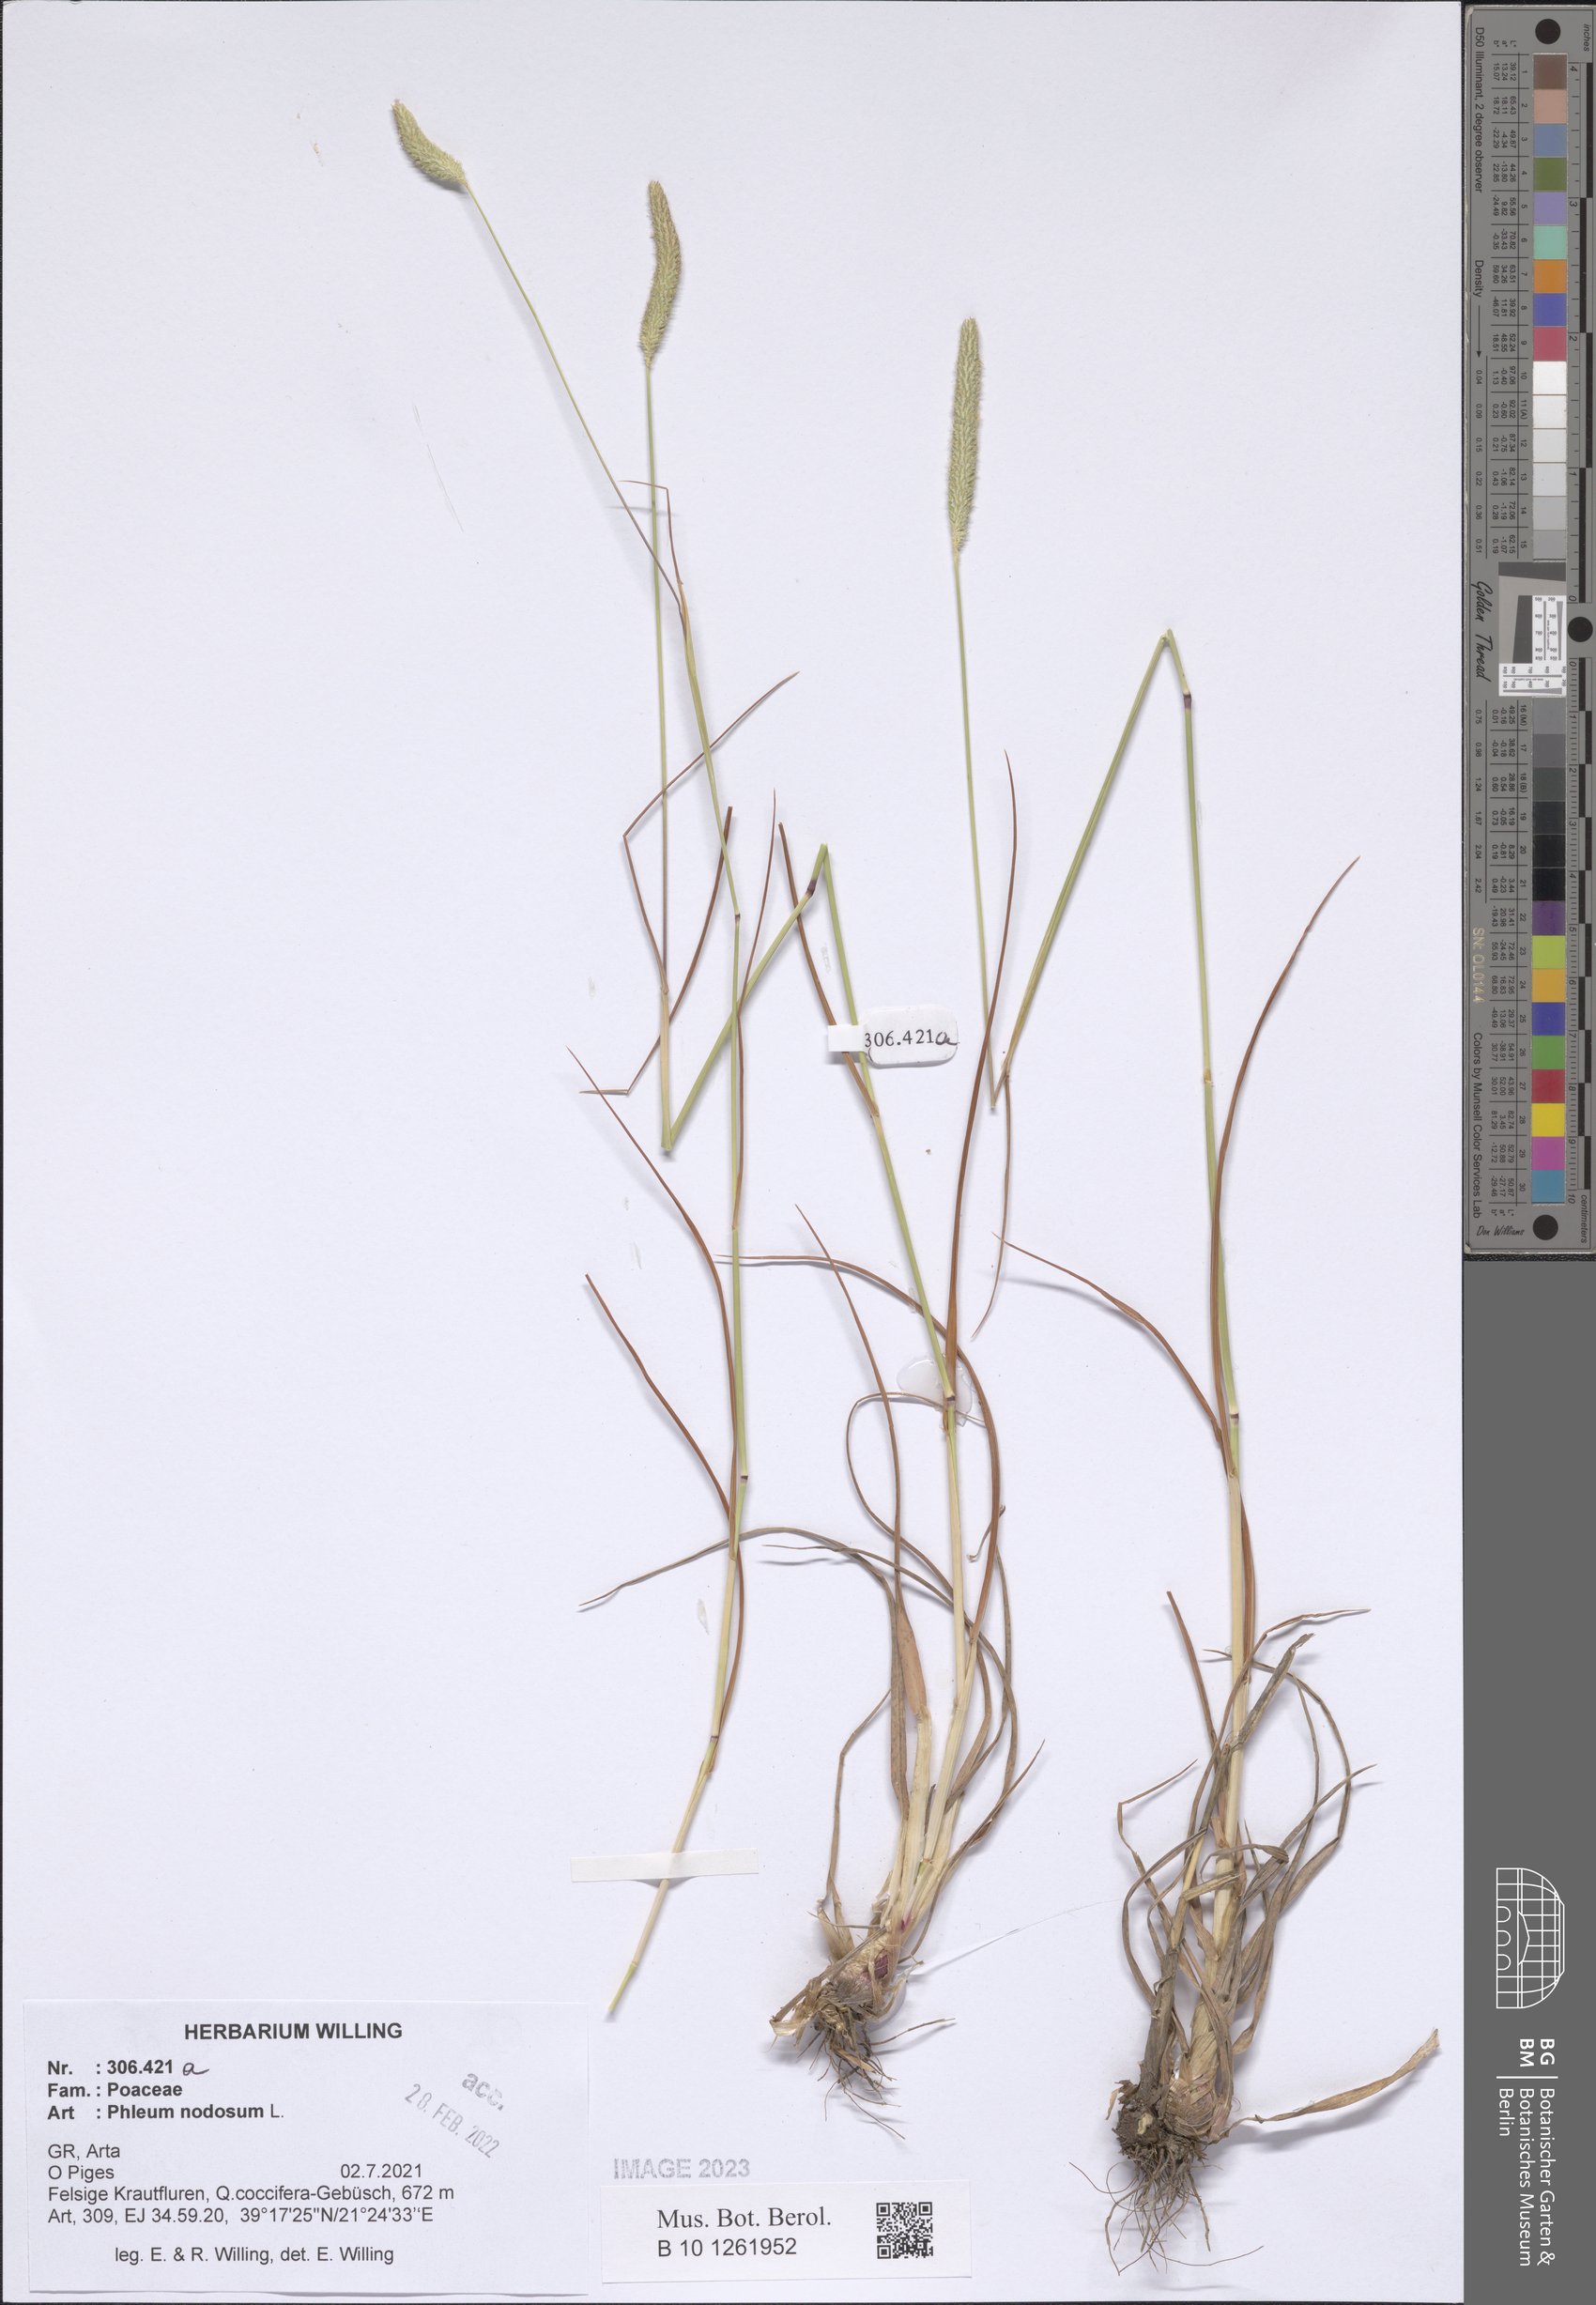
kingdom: Plantae
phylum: Tracheophyta
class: Liliopsida
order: Poales
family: Poaceae
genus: Phleum
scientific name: Phleum pratense
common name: Timothy grass
